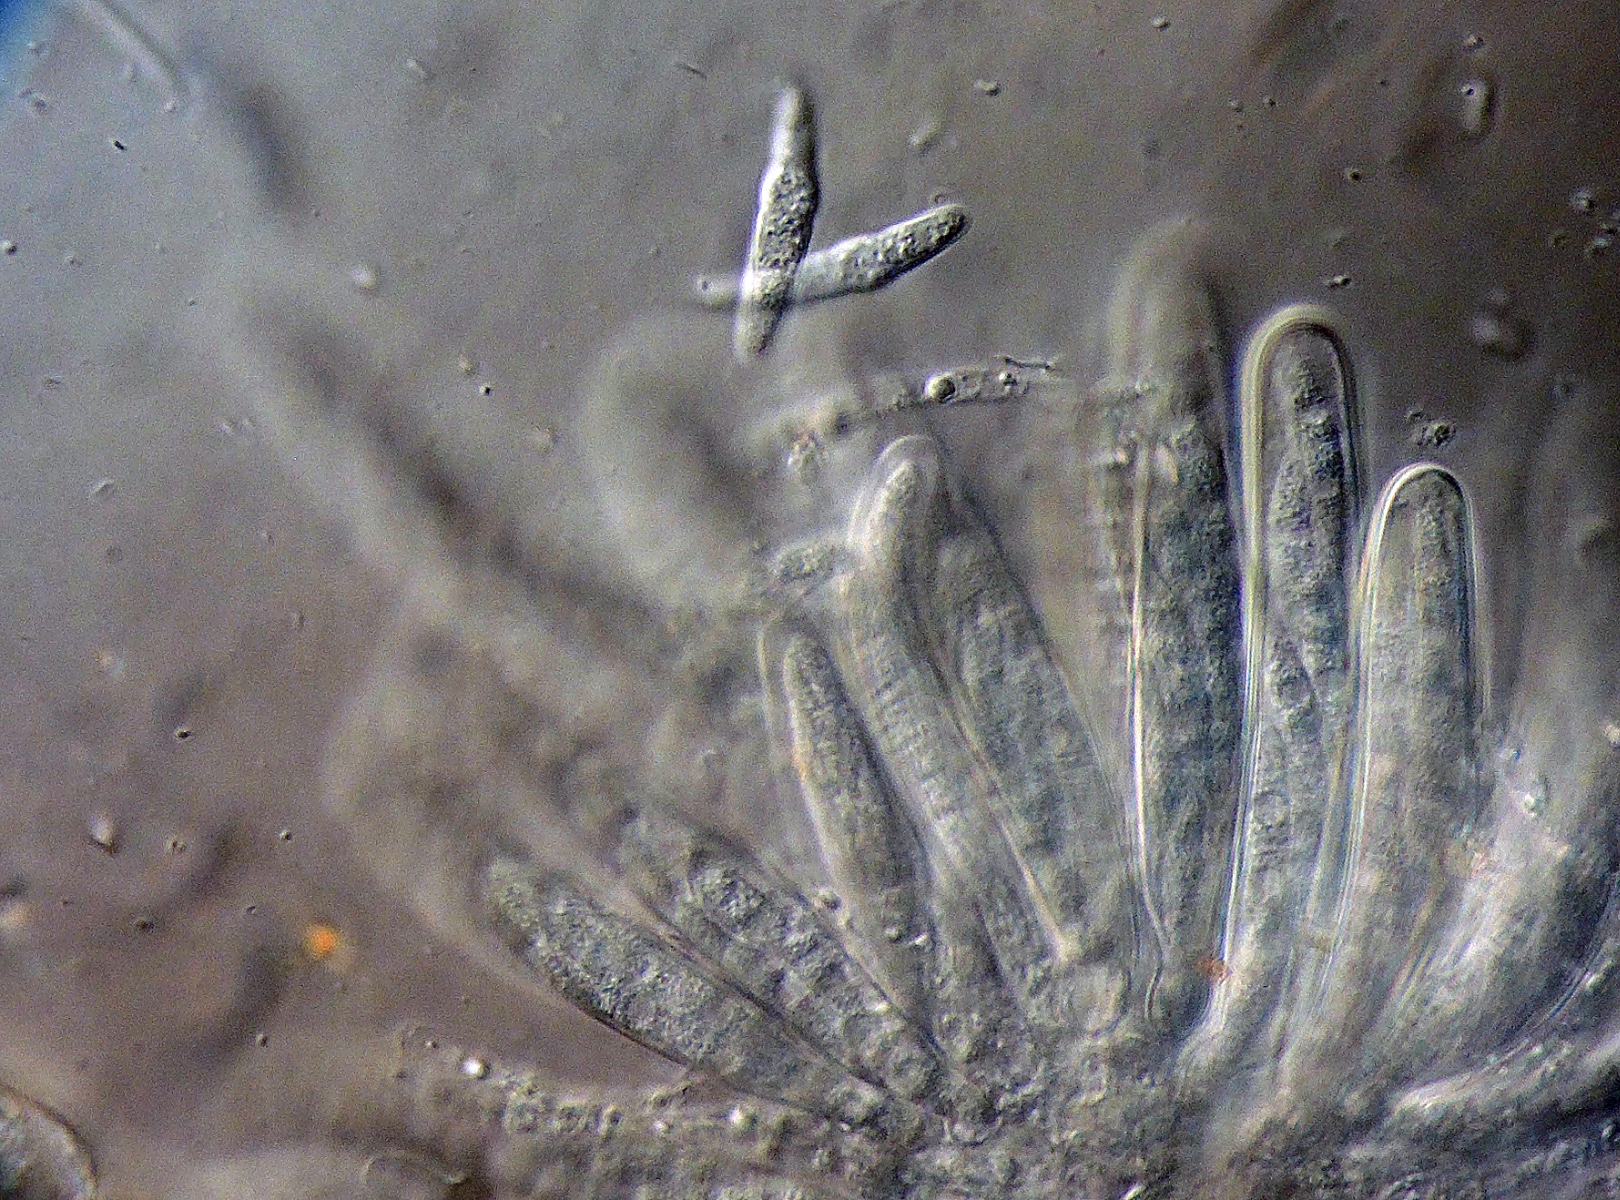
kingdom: Fungi
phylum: Ascomycota
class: Dothideomycetes
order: Pleosporales
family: Leptosphaeriaceae
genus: Leptosphaeria
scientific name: Leptosphaeria epicarecta
